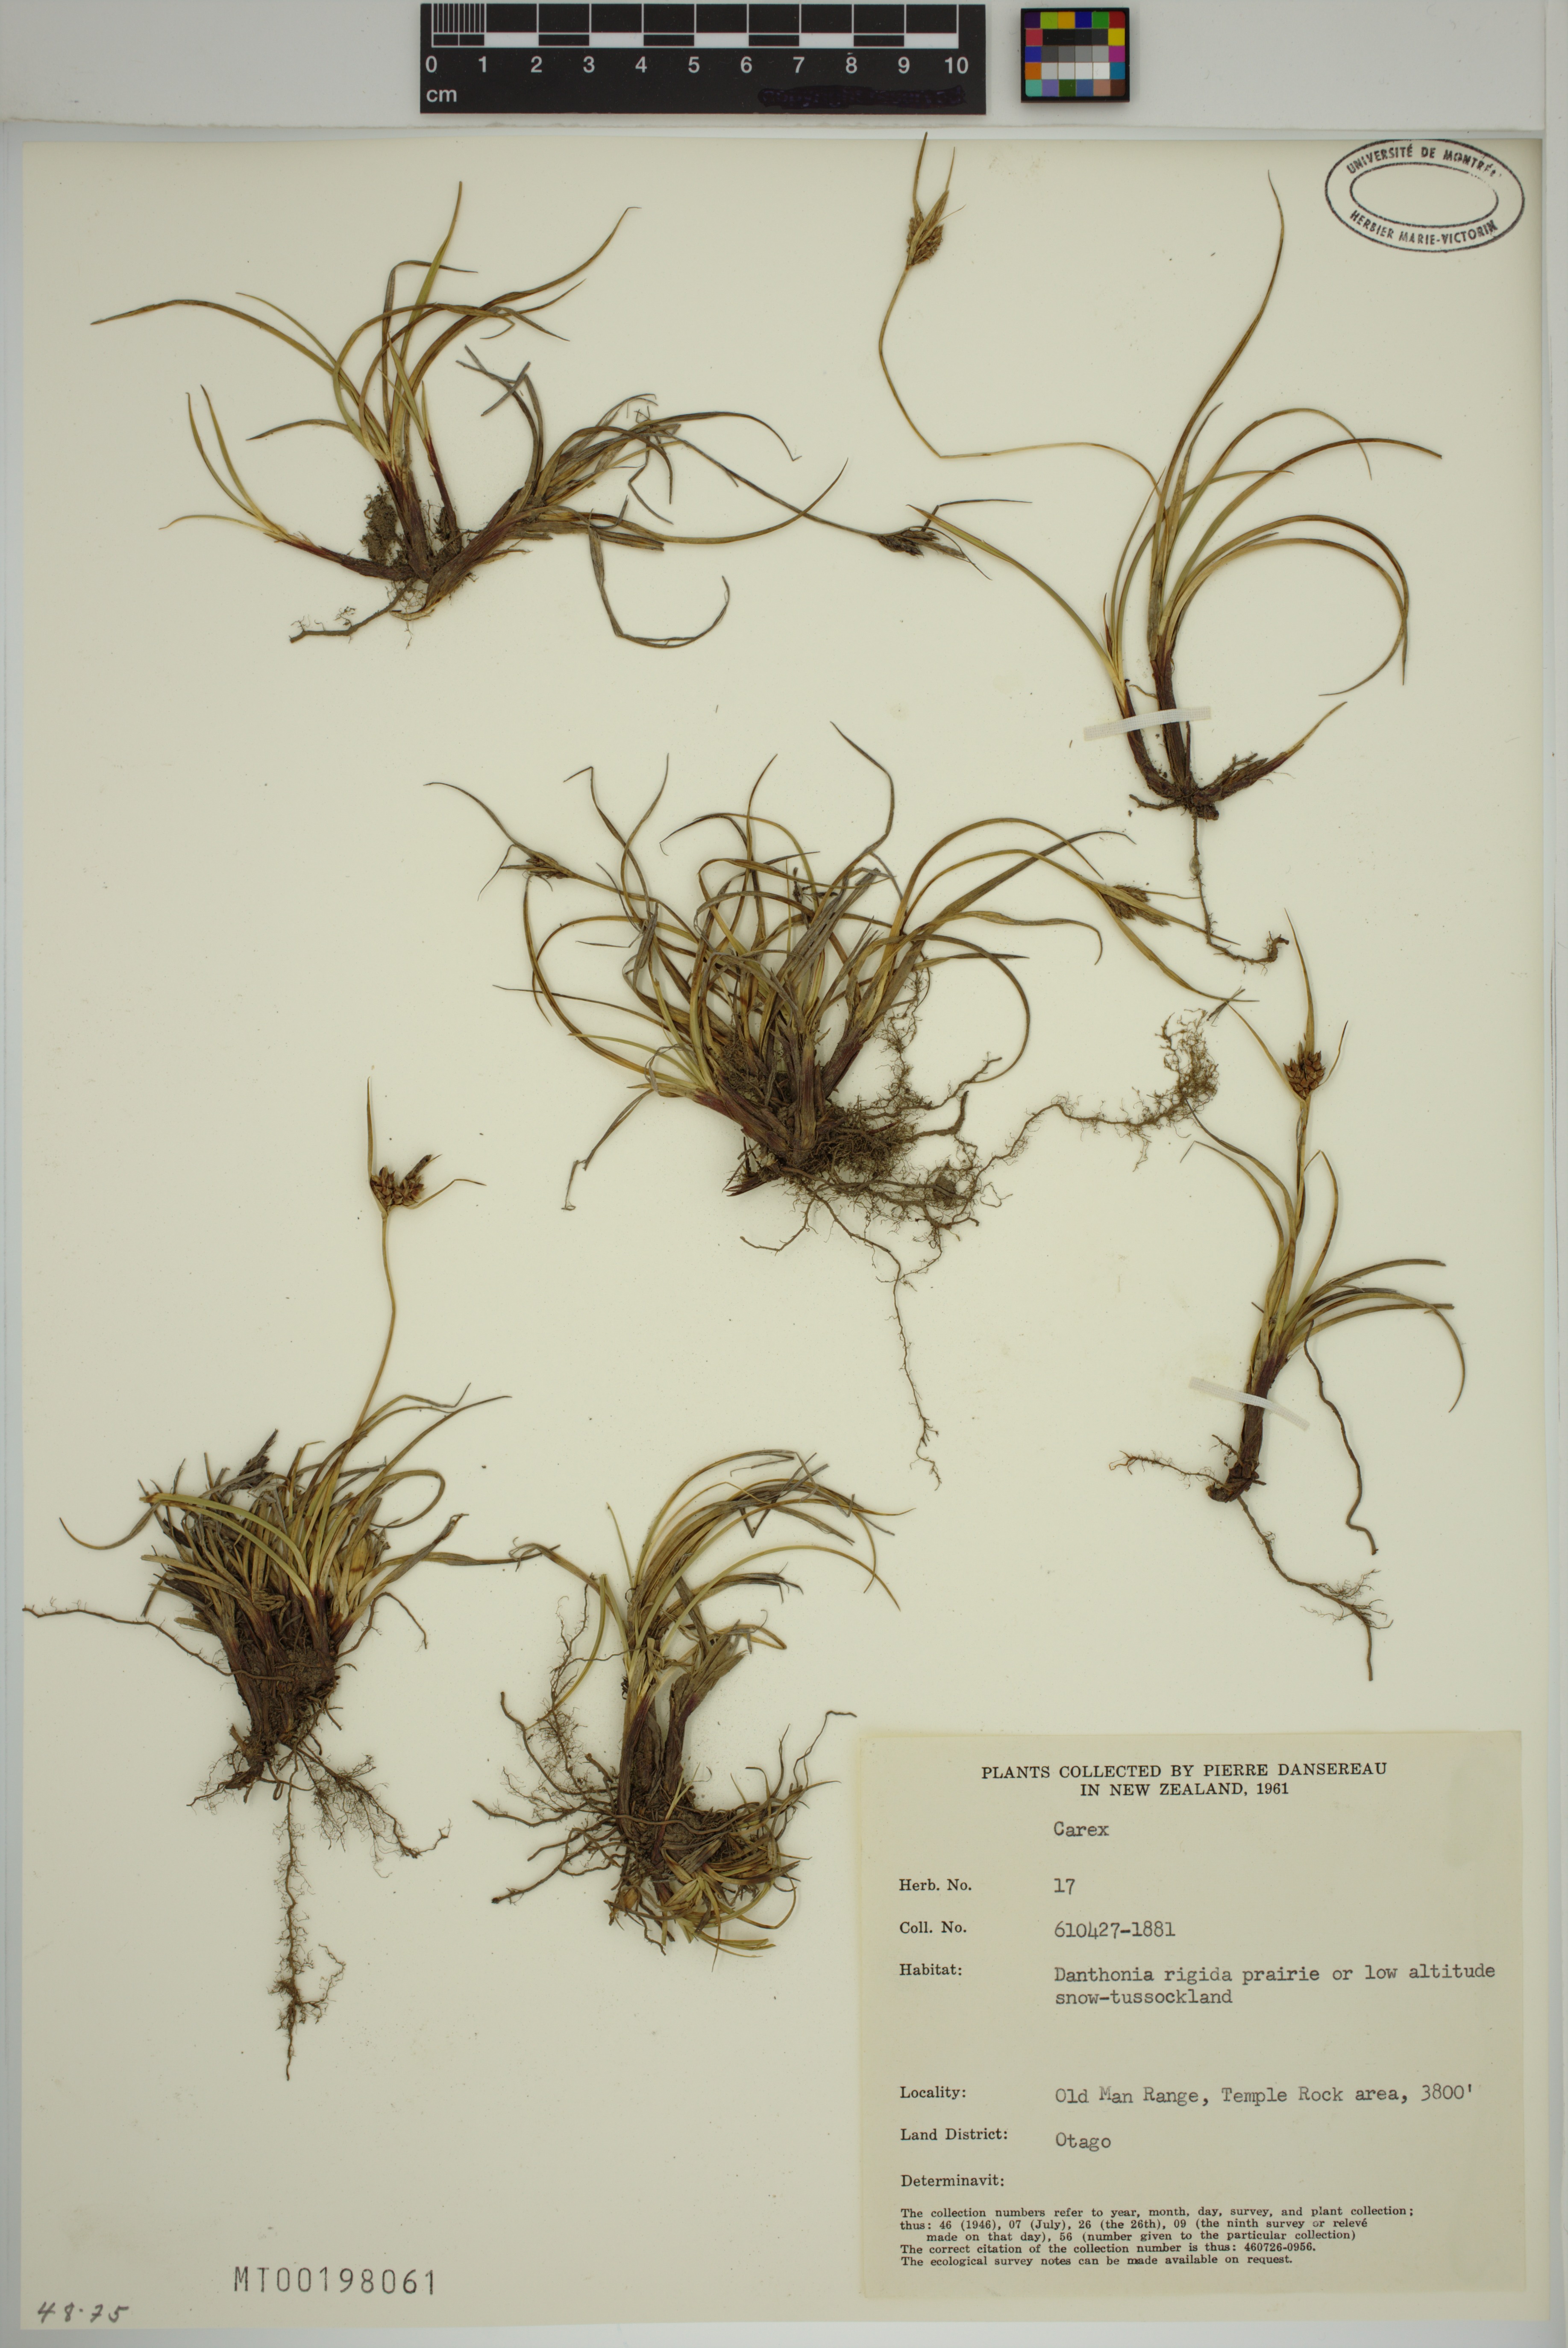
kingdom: Plantae
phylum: Tracheophyta
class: Liliopsida
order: Poales
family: Cyperaceae
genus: Carex
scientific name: Carex
